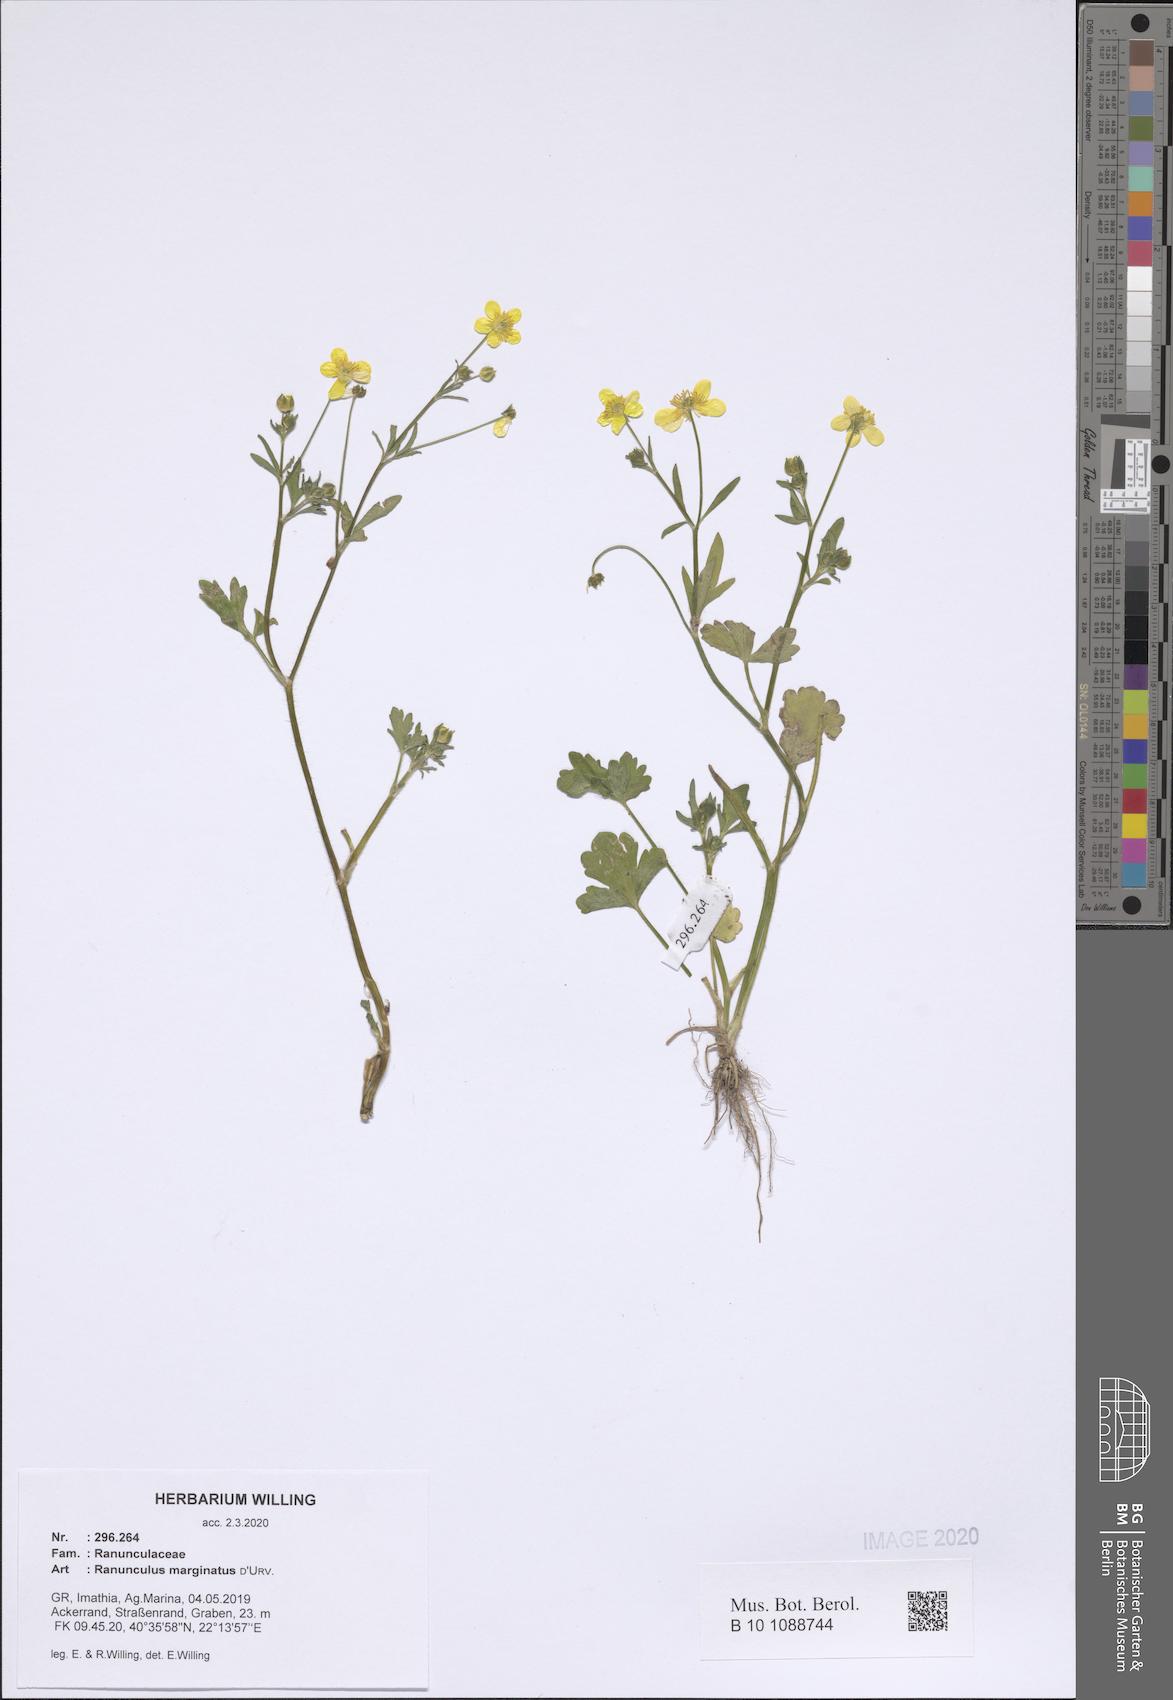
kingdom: Plantae
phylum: Tracheophyta
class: Magnoliopsida
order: Ranunculales
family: Ranunculaceae
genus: Ranunculus
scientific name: Ranunculus marginatus
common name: St. martin's buttercup
